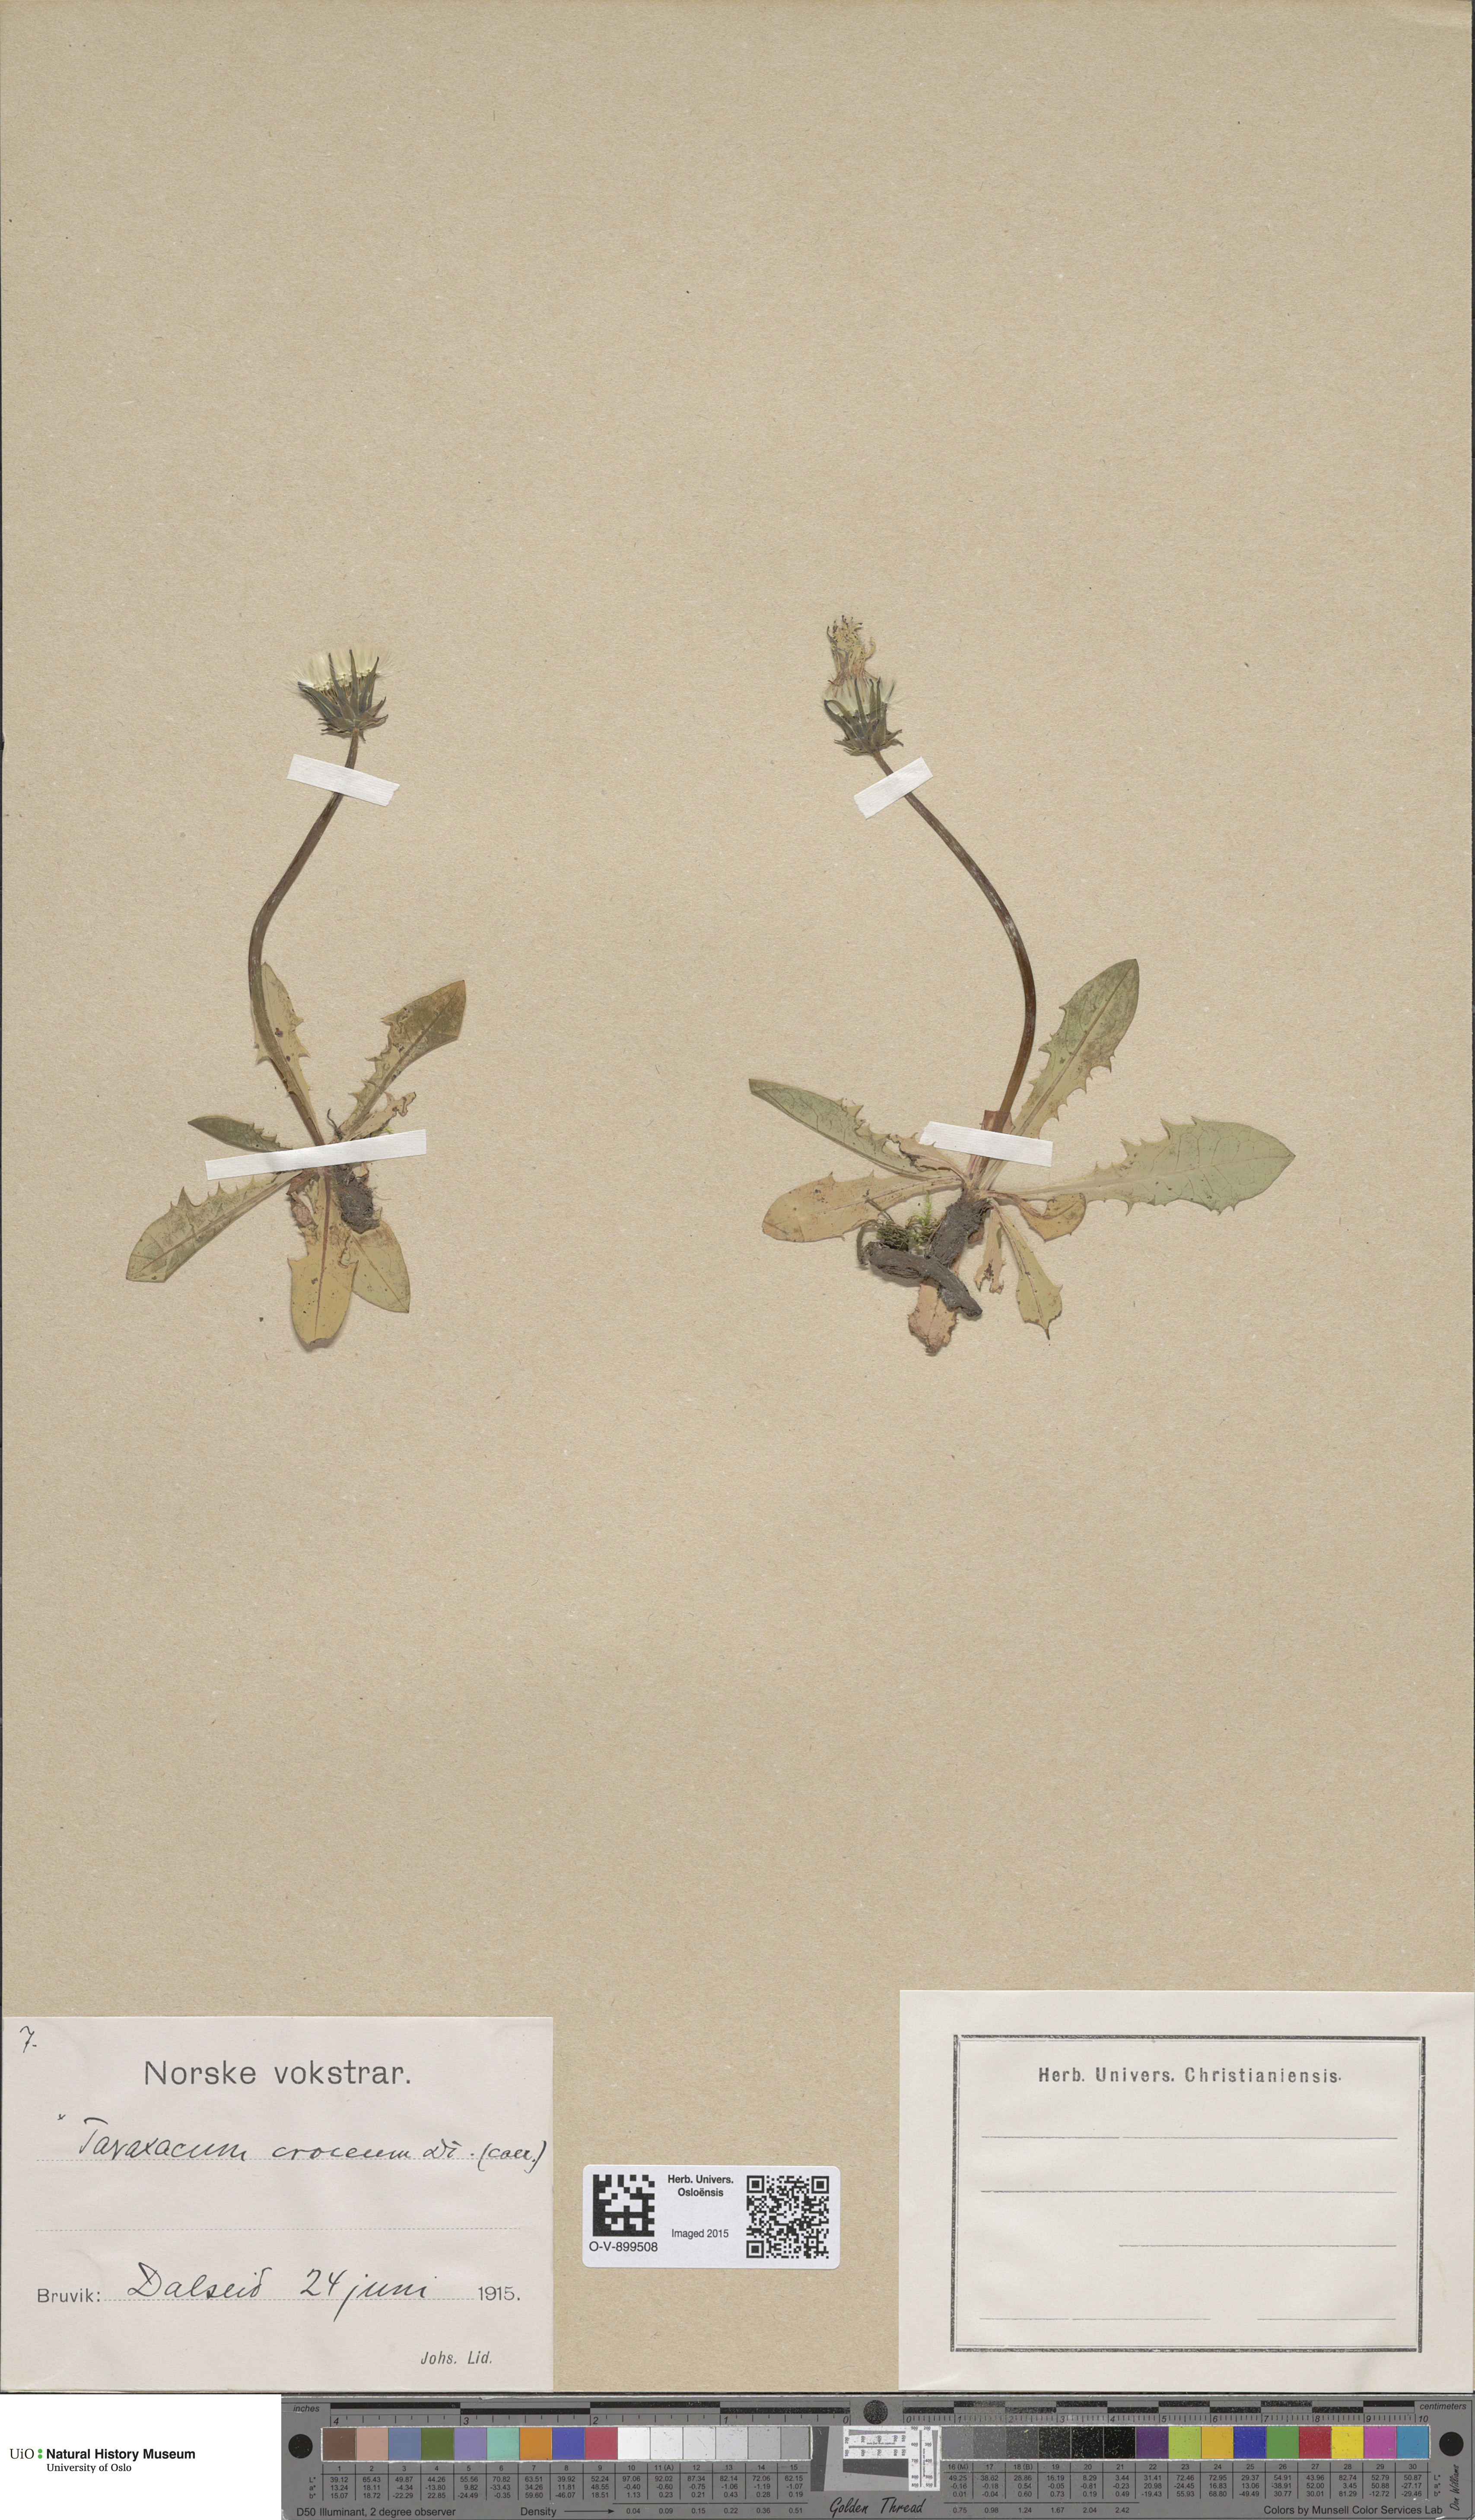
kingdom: Plantae
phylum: Tracheophyta
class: Magnoliopsida
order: Asterales
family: Asteraceae
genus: Taraxacum
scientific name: Taraxacum croceum
